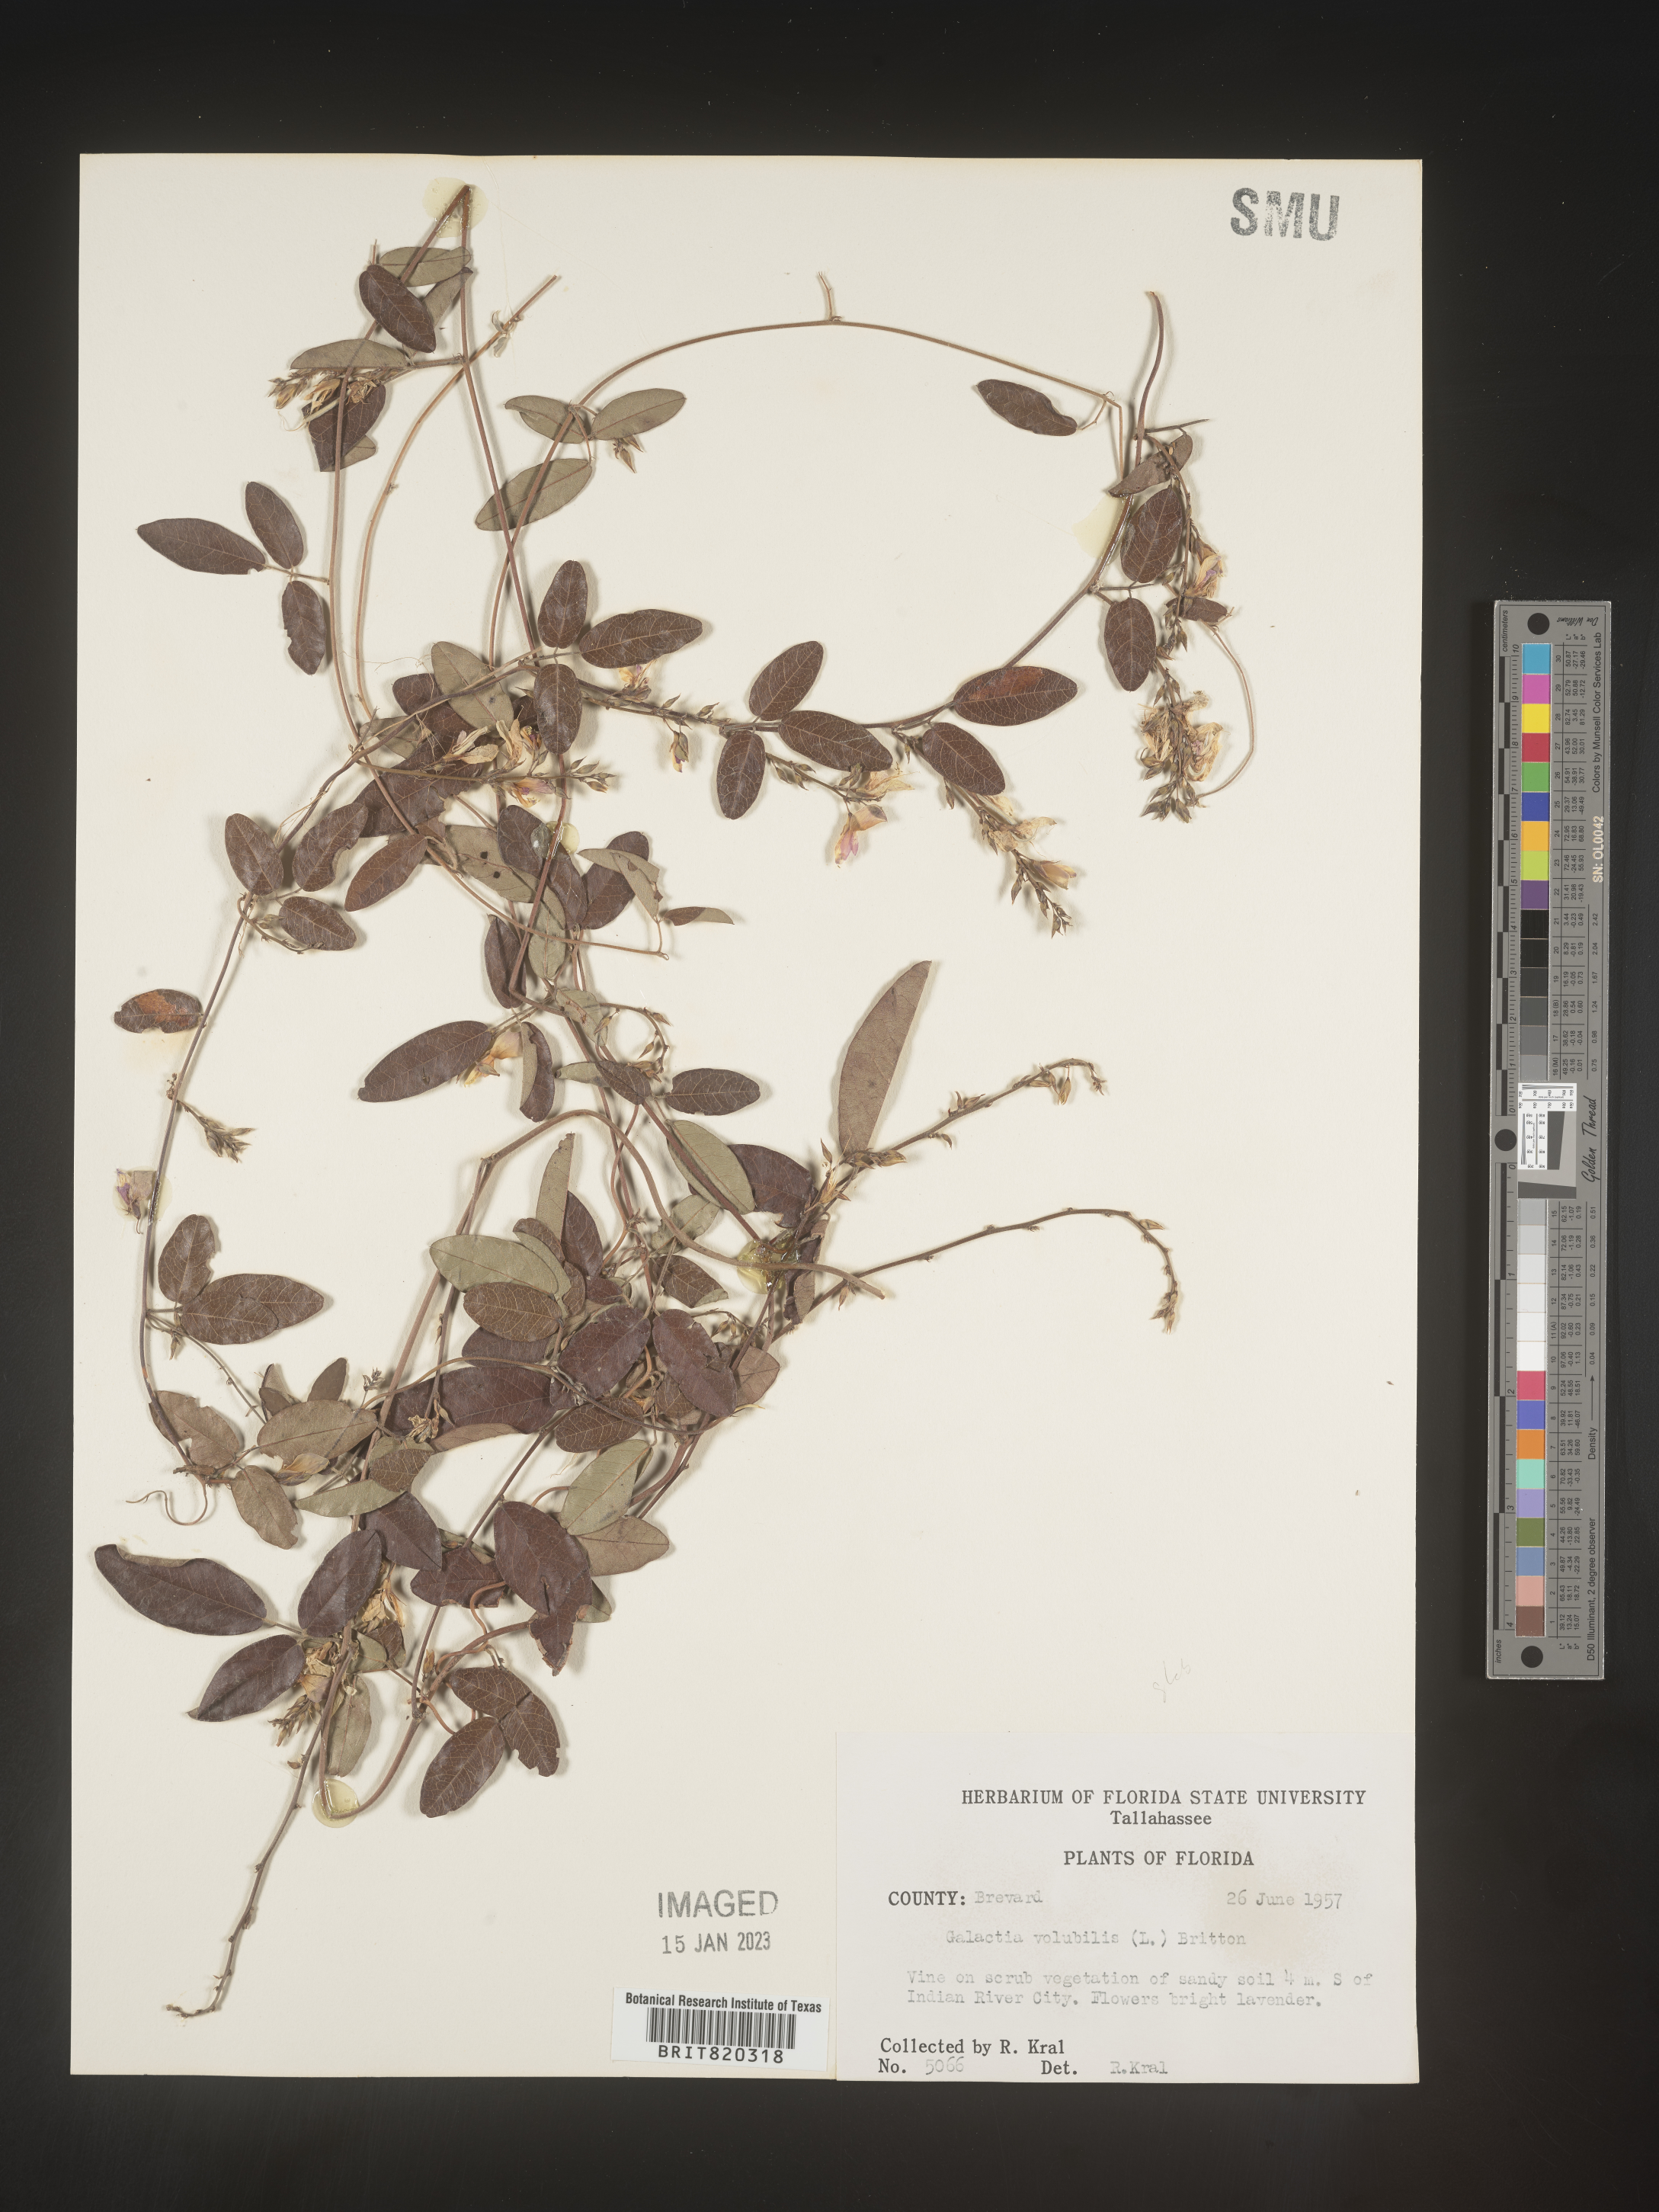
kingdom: Plantae
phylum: Tracheophyta
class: Magnoliopsida
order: Fabales
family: Fabaceae
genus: Galactia
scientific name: Galactia regularis
